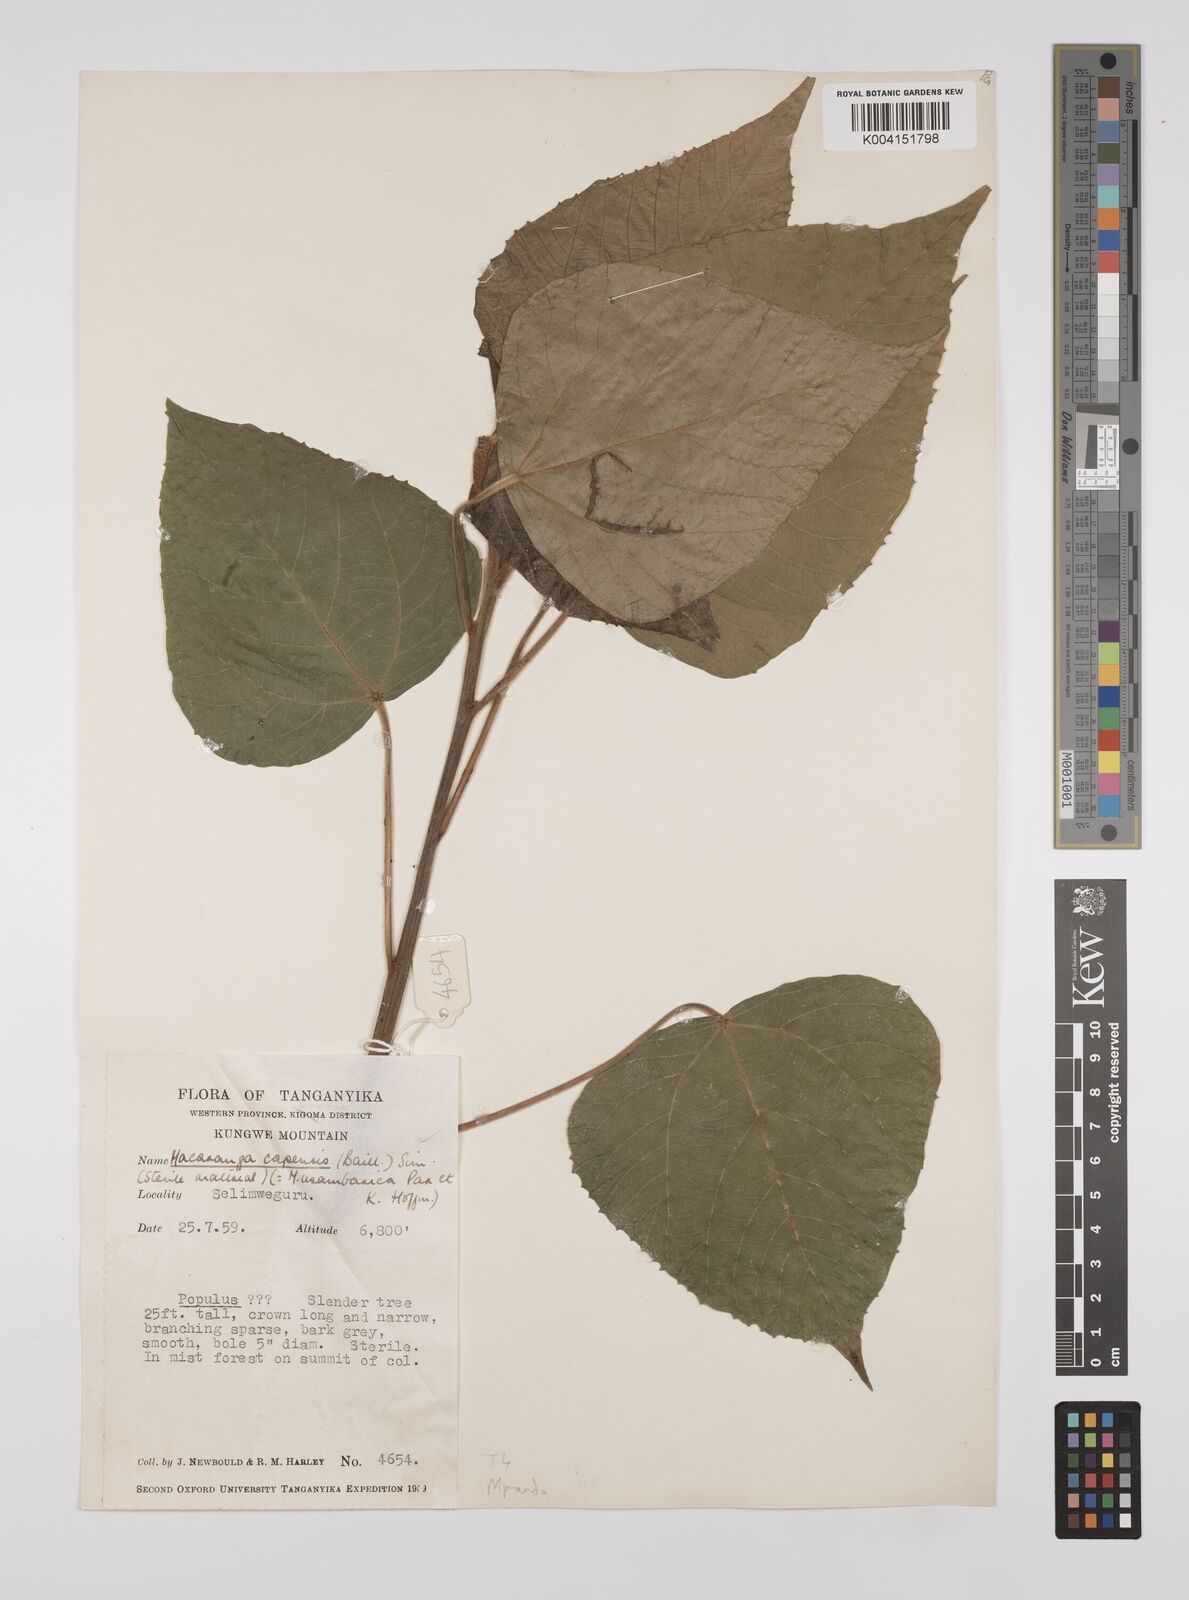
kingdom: Plantae
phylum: Tracheophyta
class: Magnoliopsida
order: Malpighiales
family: Euphorbiaceae
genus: Macaranga
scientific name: Macaranga capensis
